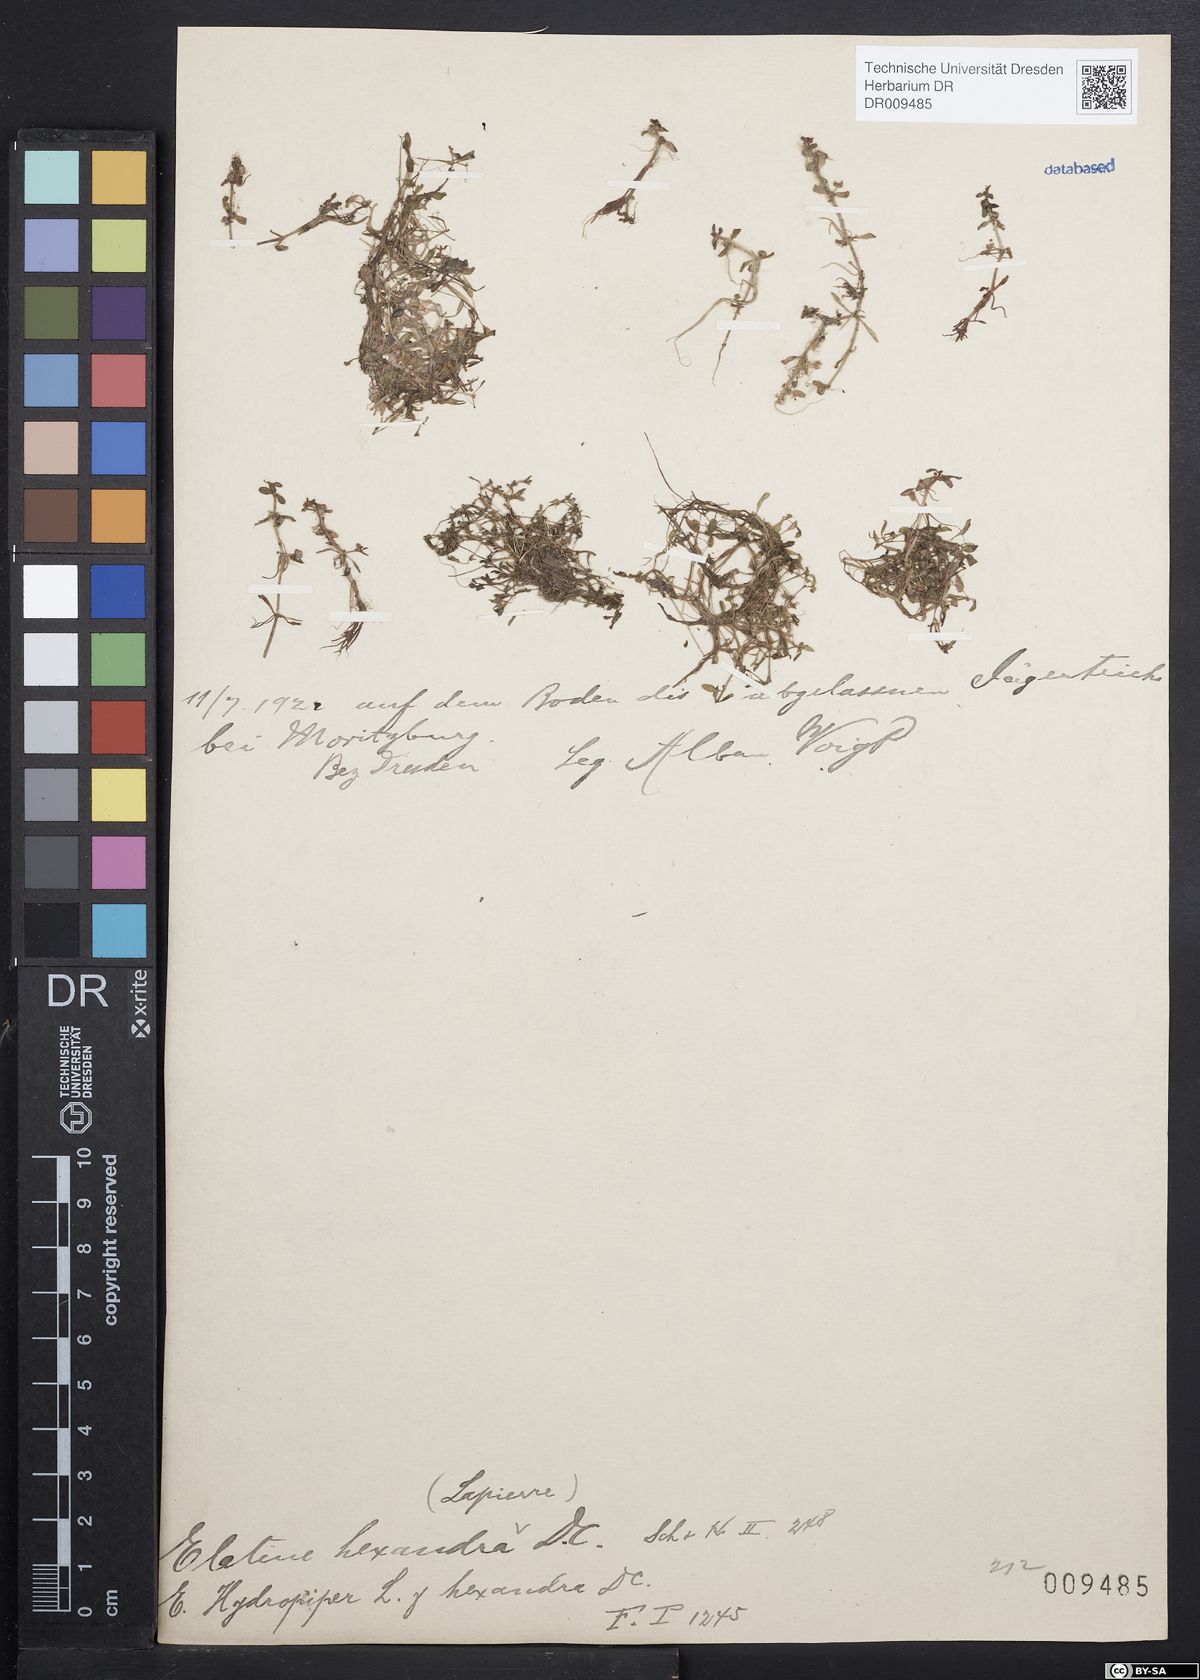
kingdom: Plantae
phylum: Tracheophyta
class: Magnoliopsida
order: Malpighiales
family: Elatinaceae
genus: Elatine
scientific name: Elatine hexandra
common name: Six-stamened waterwort
